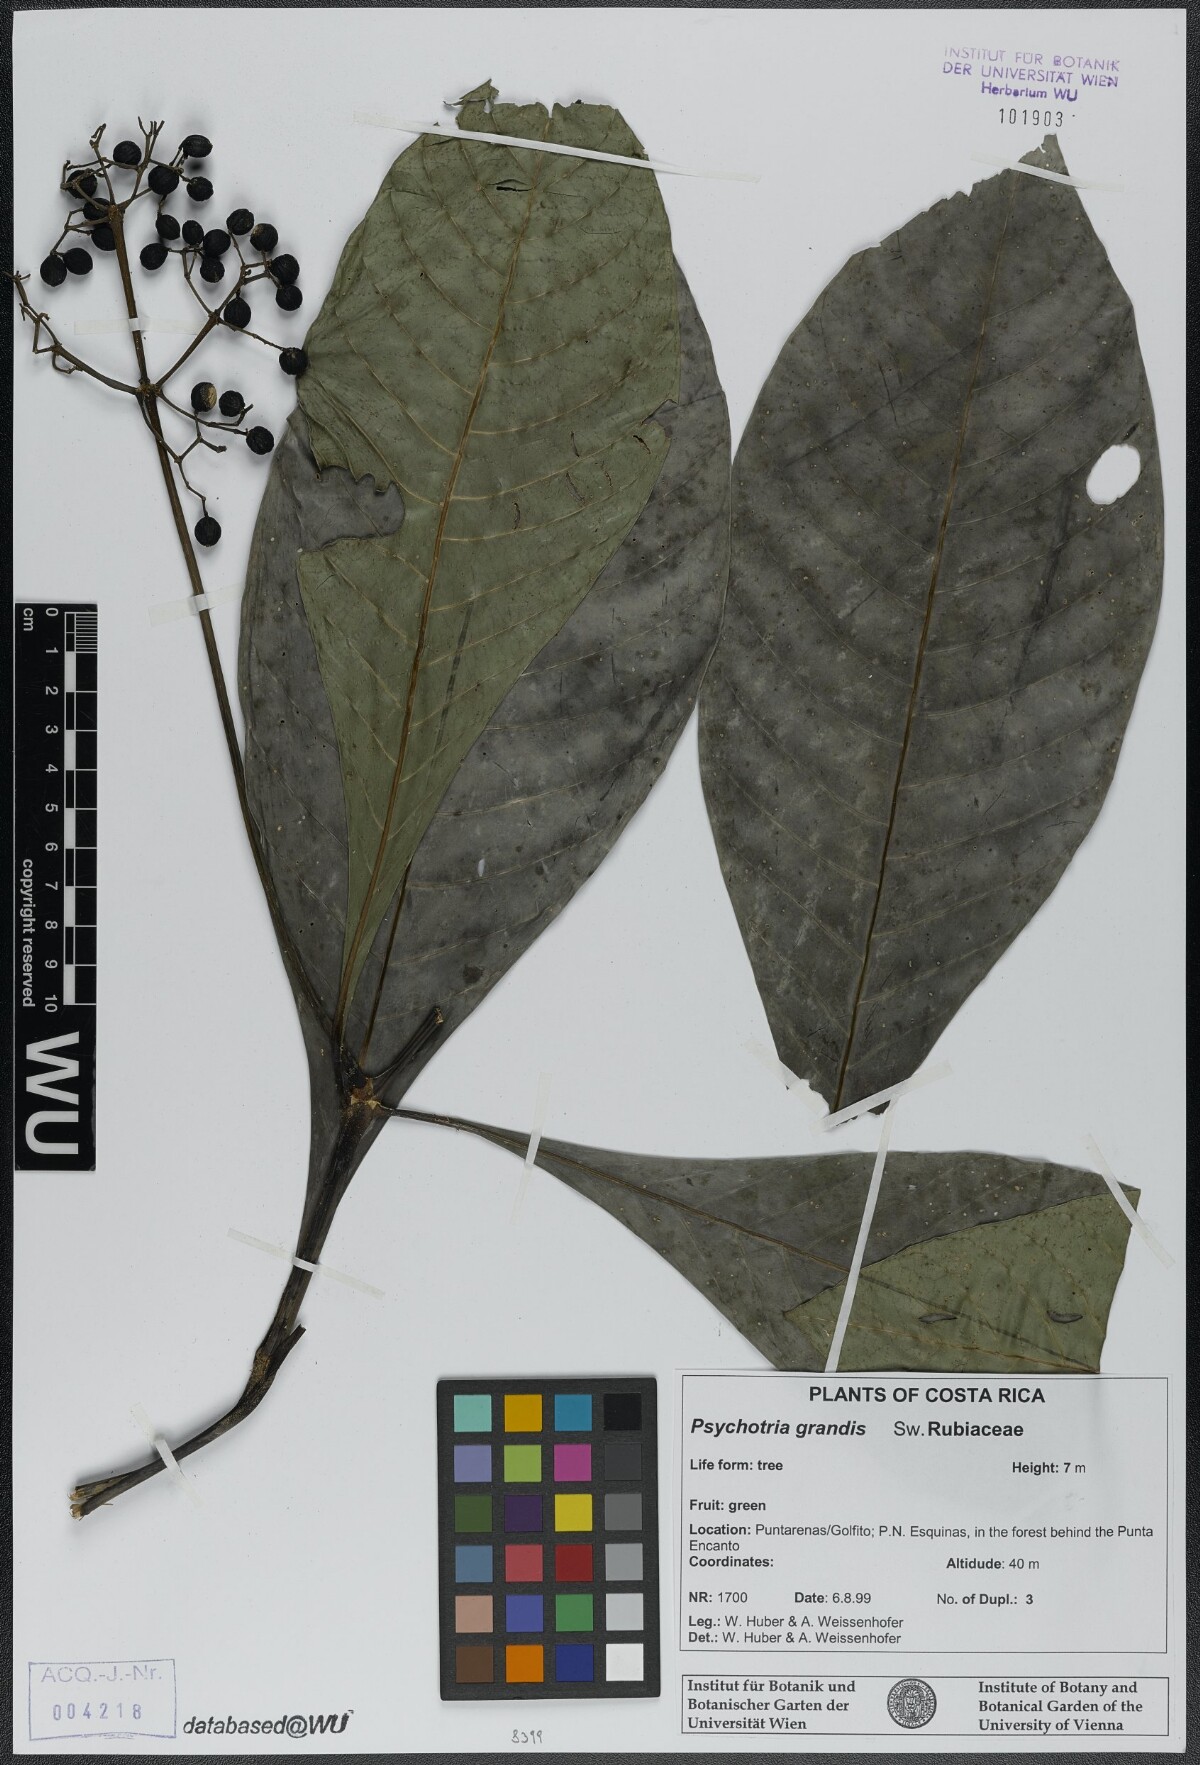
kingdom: Plantae
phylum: Tracheophyta
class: Magnoliopsida
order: Gentianales
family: Rubiaceae
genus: Psychotria
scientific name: Psychotria grandis
